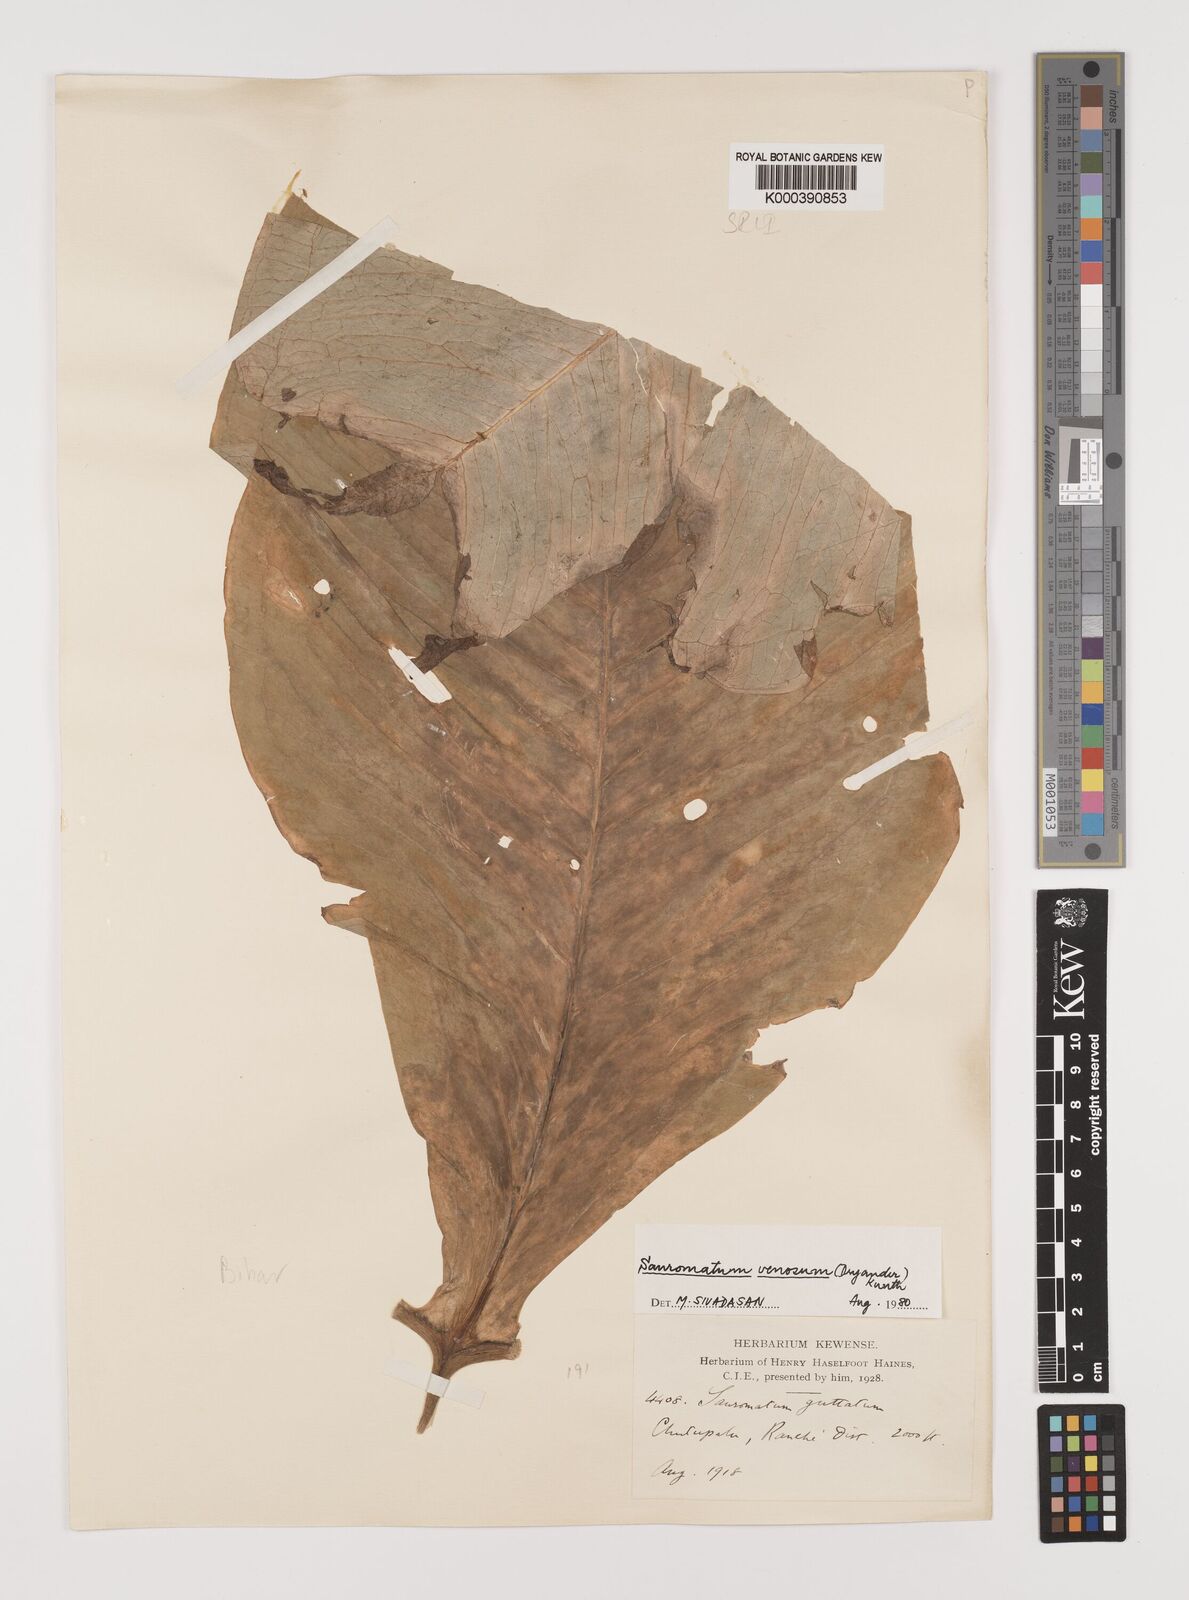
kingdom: Plantae
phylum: Tracheophyta
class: Liliopsida
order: Alismatales
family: Araceae
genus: Sauromatum
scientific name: Sauromatum venosum
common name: Voodoo lily
